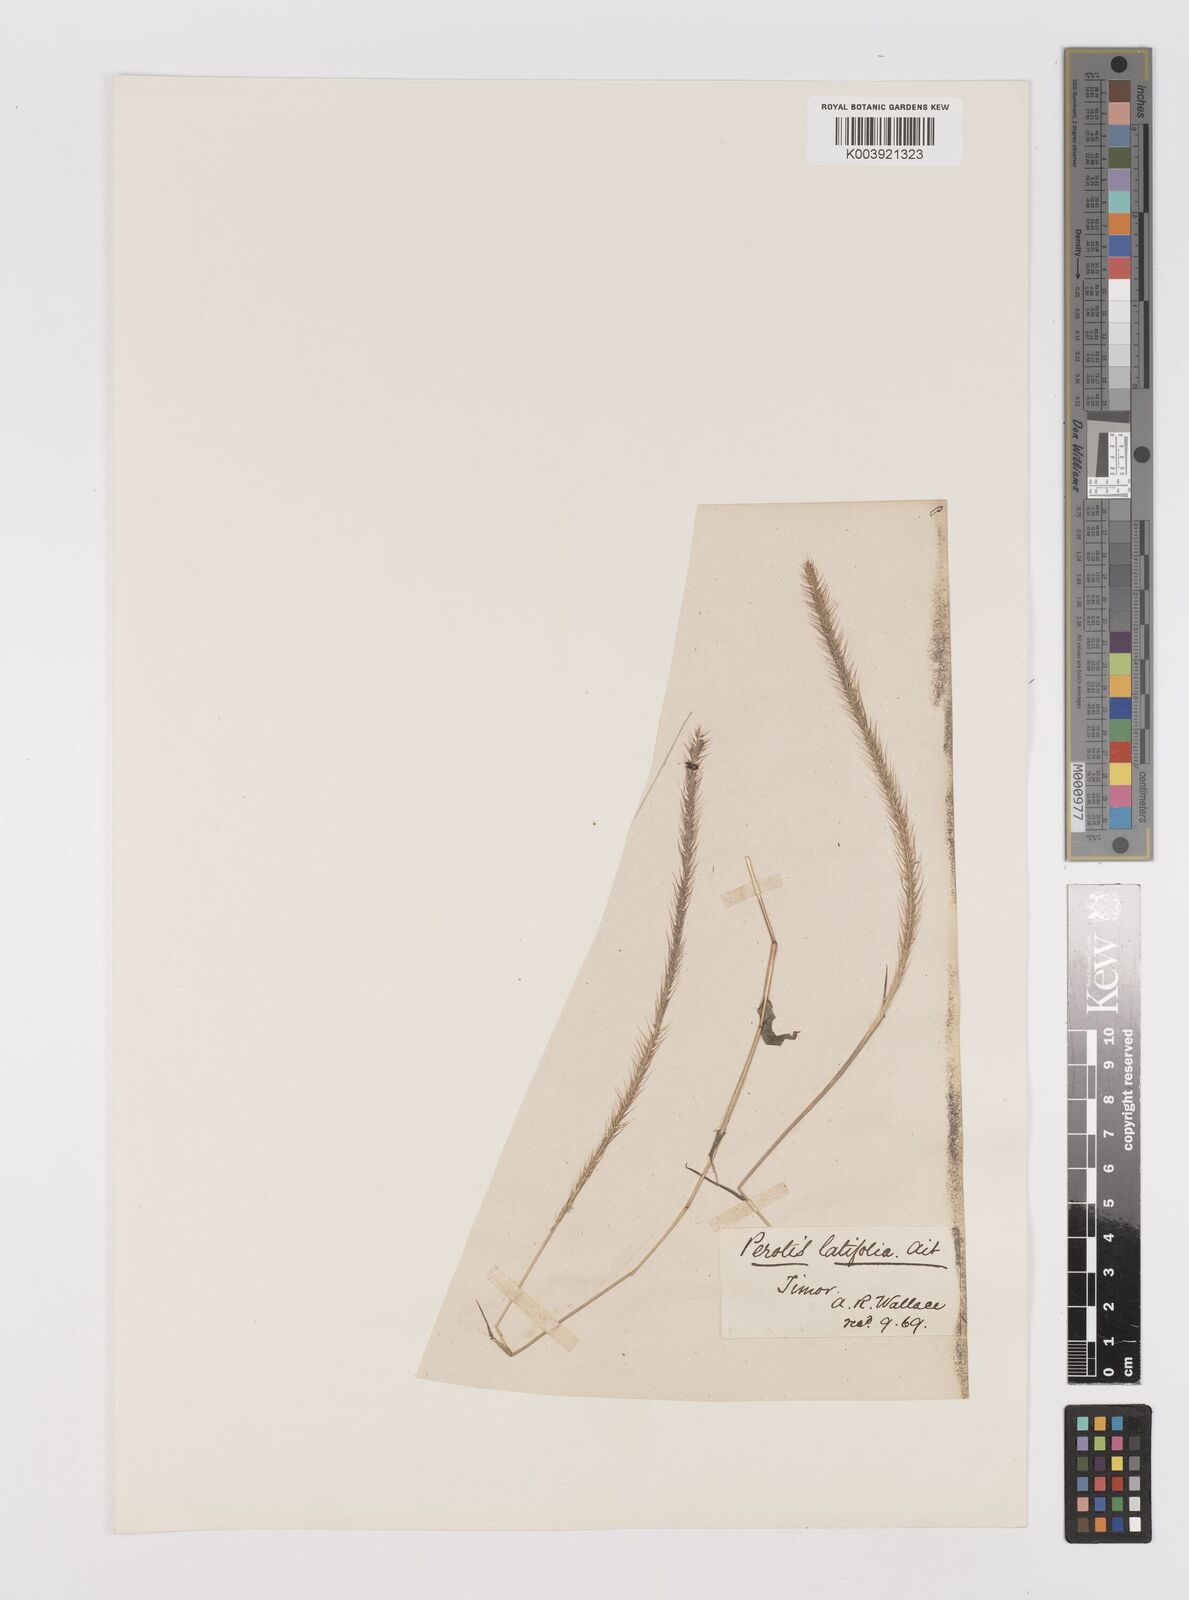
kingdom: Plantae
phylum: Tracheophyta
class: Liliopsida
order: Poales
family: Poaceae
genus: Perotis
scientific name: Perotis indica
